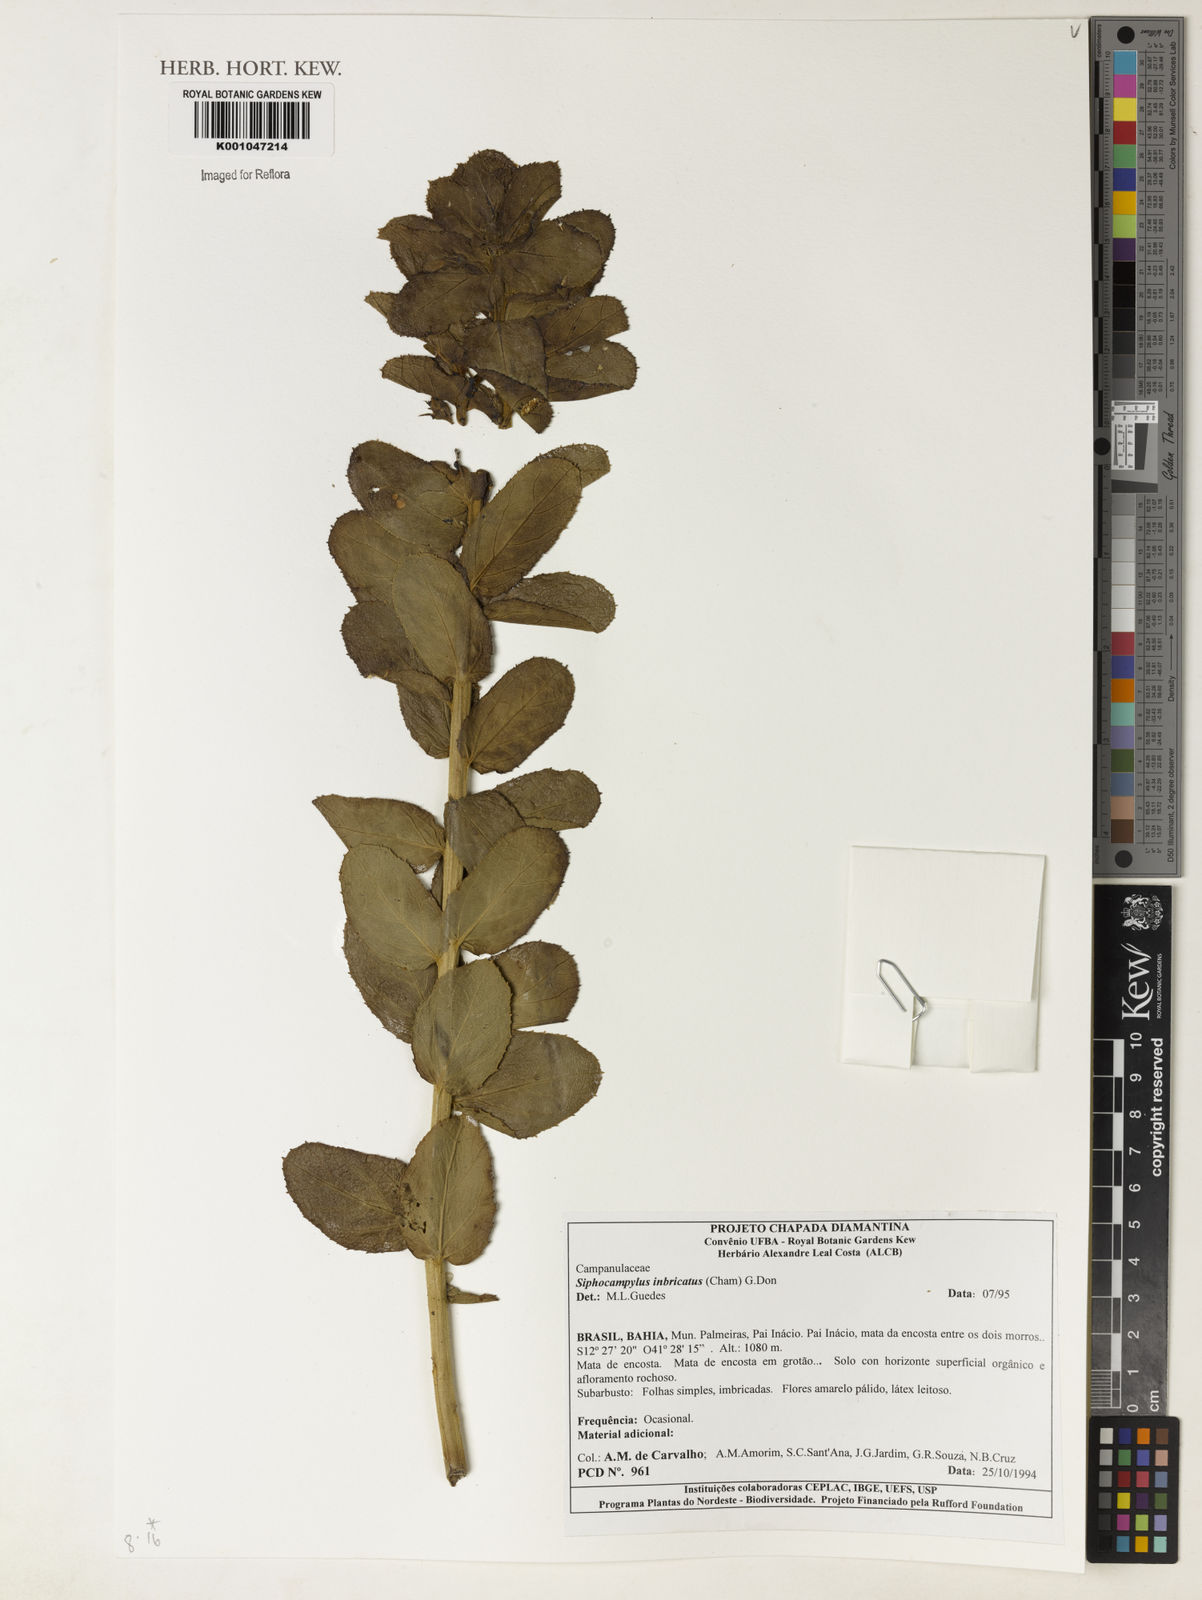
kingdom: Plantae
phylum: Tracheophyta
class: Magnoliopsida
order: Asterales
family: Campanulaceae
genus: Siphocampylus
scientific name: Siphocampylus imbricatus
